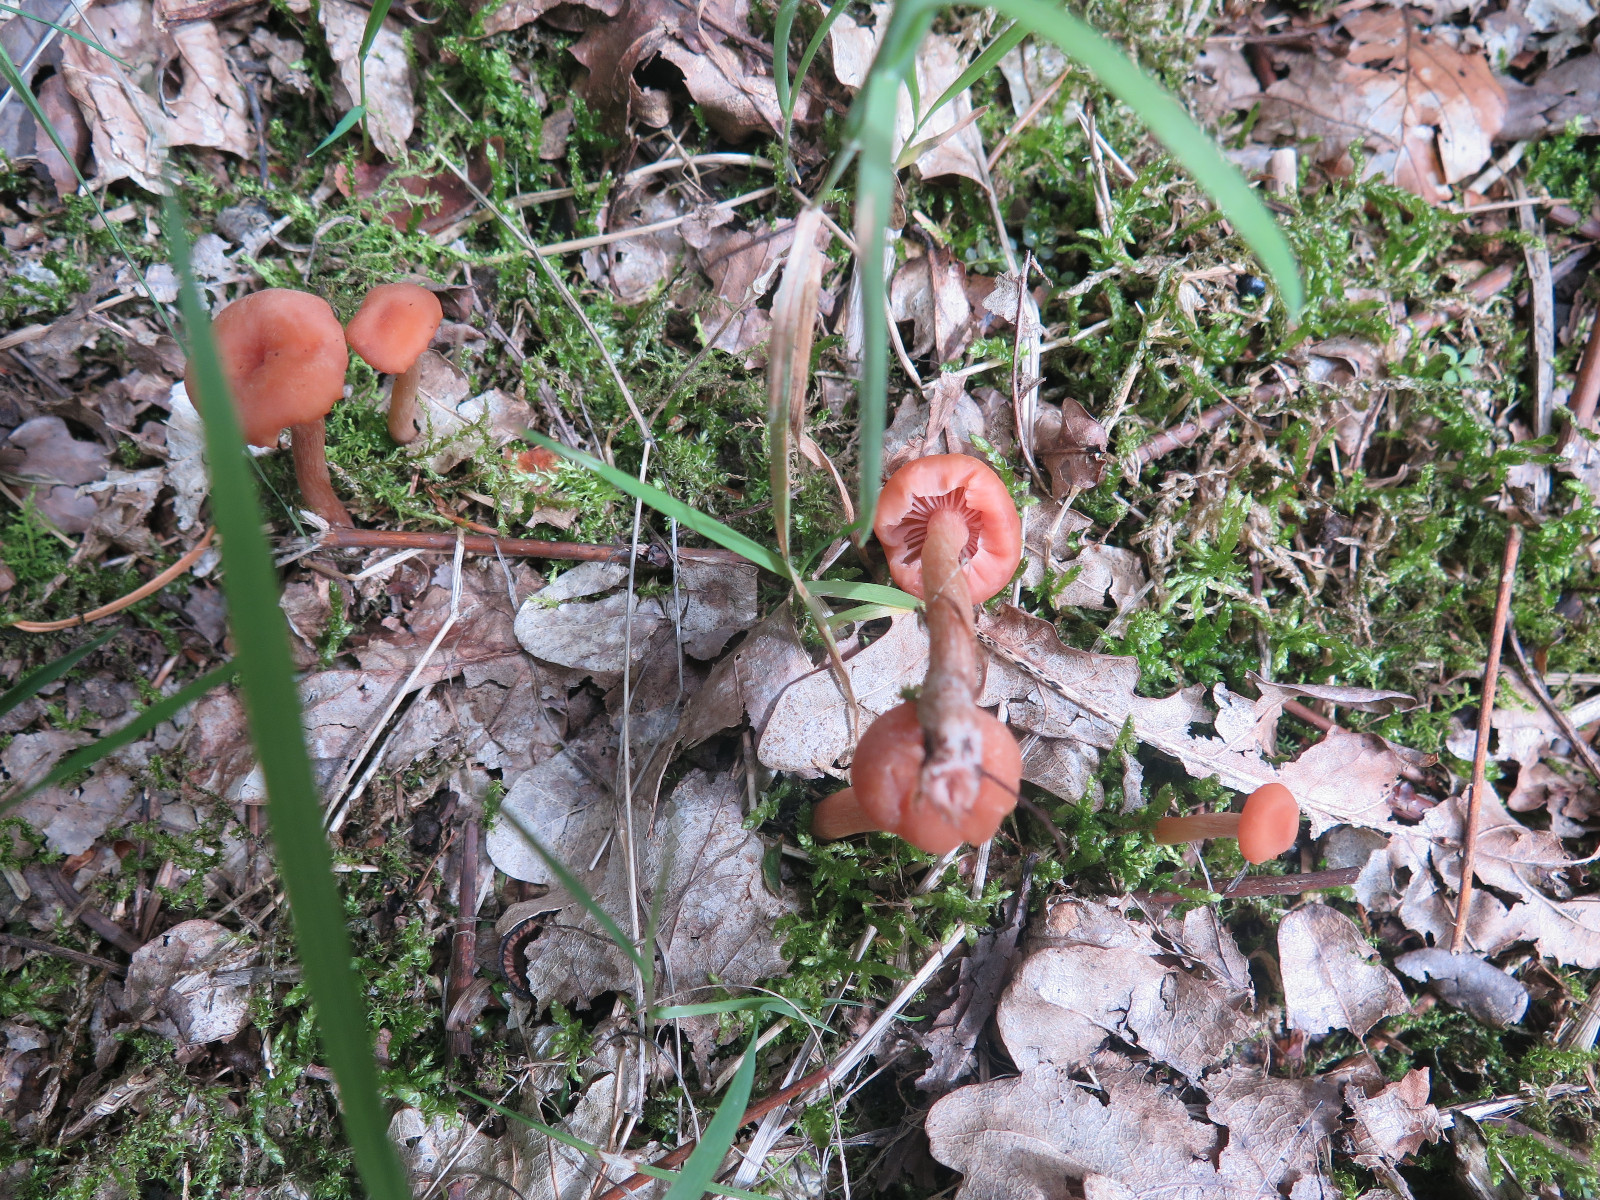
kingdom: Fungi
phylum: Basidiomycota
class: Agaricomycetes
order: Agaricales
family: Hydnangiaceae
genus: Laccaria
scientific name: Laccaria laccata
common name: rød ametysthat
